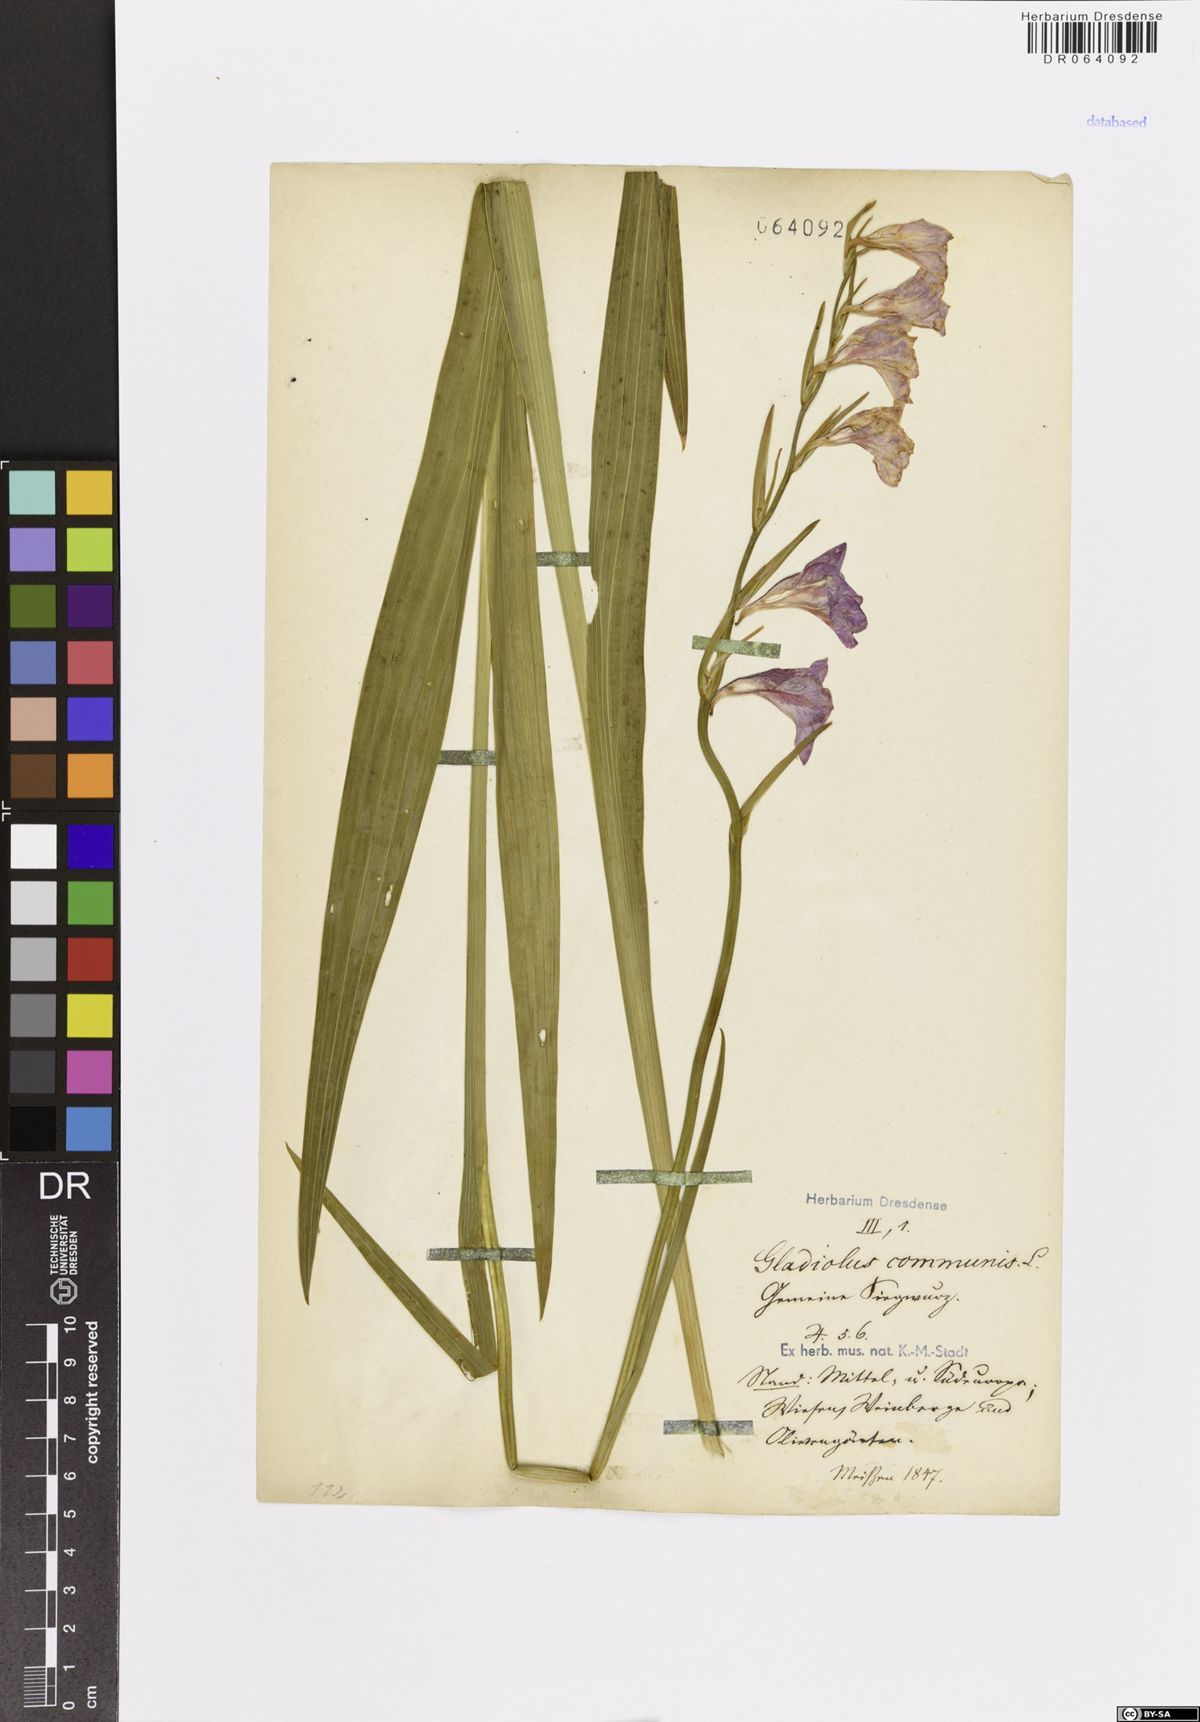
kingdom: Plantae
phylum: Tracheophyta
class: Liliopsida
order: Asparagales
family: Iridaceae
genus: Gladiolus
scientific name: Gladiolus communis
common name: Eastern gladiolus
